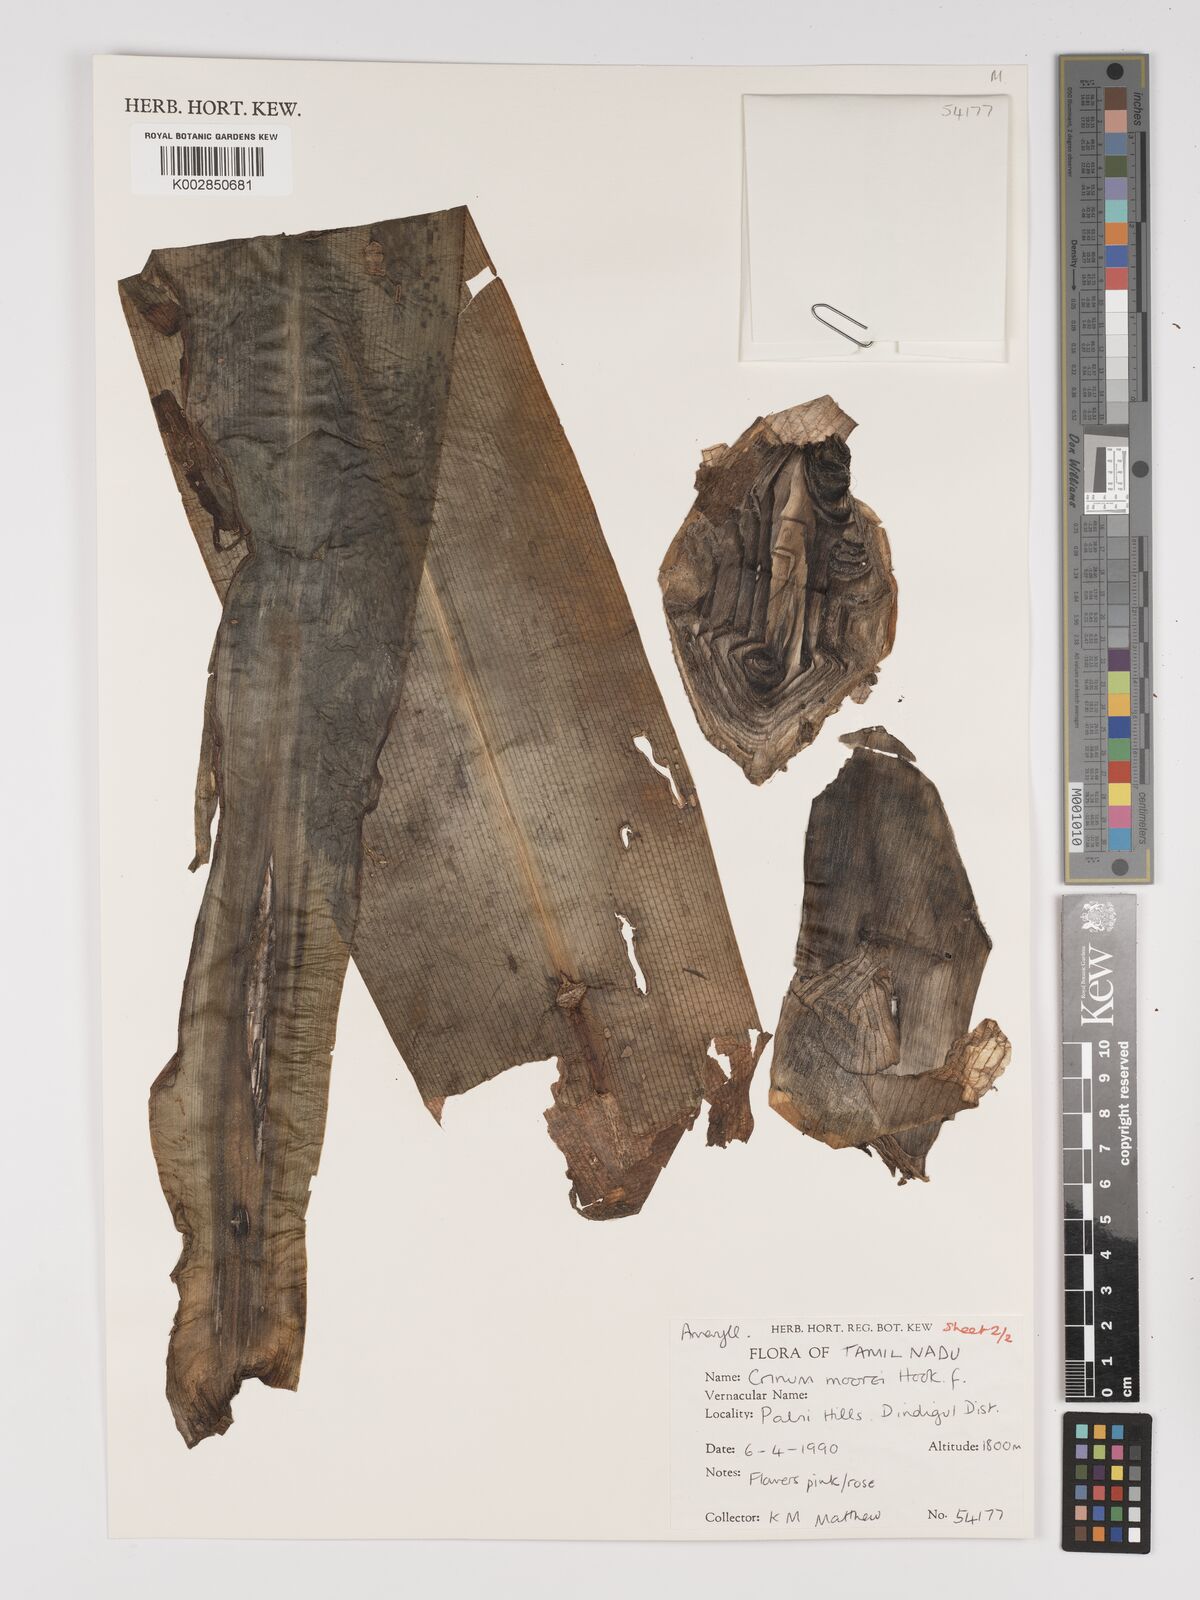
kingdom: Plantae
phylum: Tracheophyta
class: Liliopsida
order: Asparagales
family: Amaryllidaceae
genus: Crinum
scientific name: Crinum moorei
